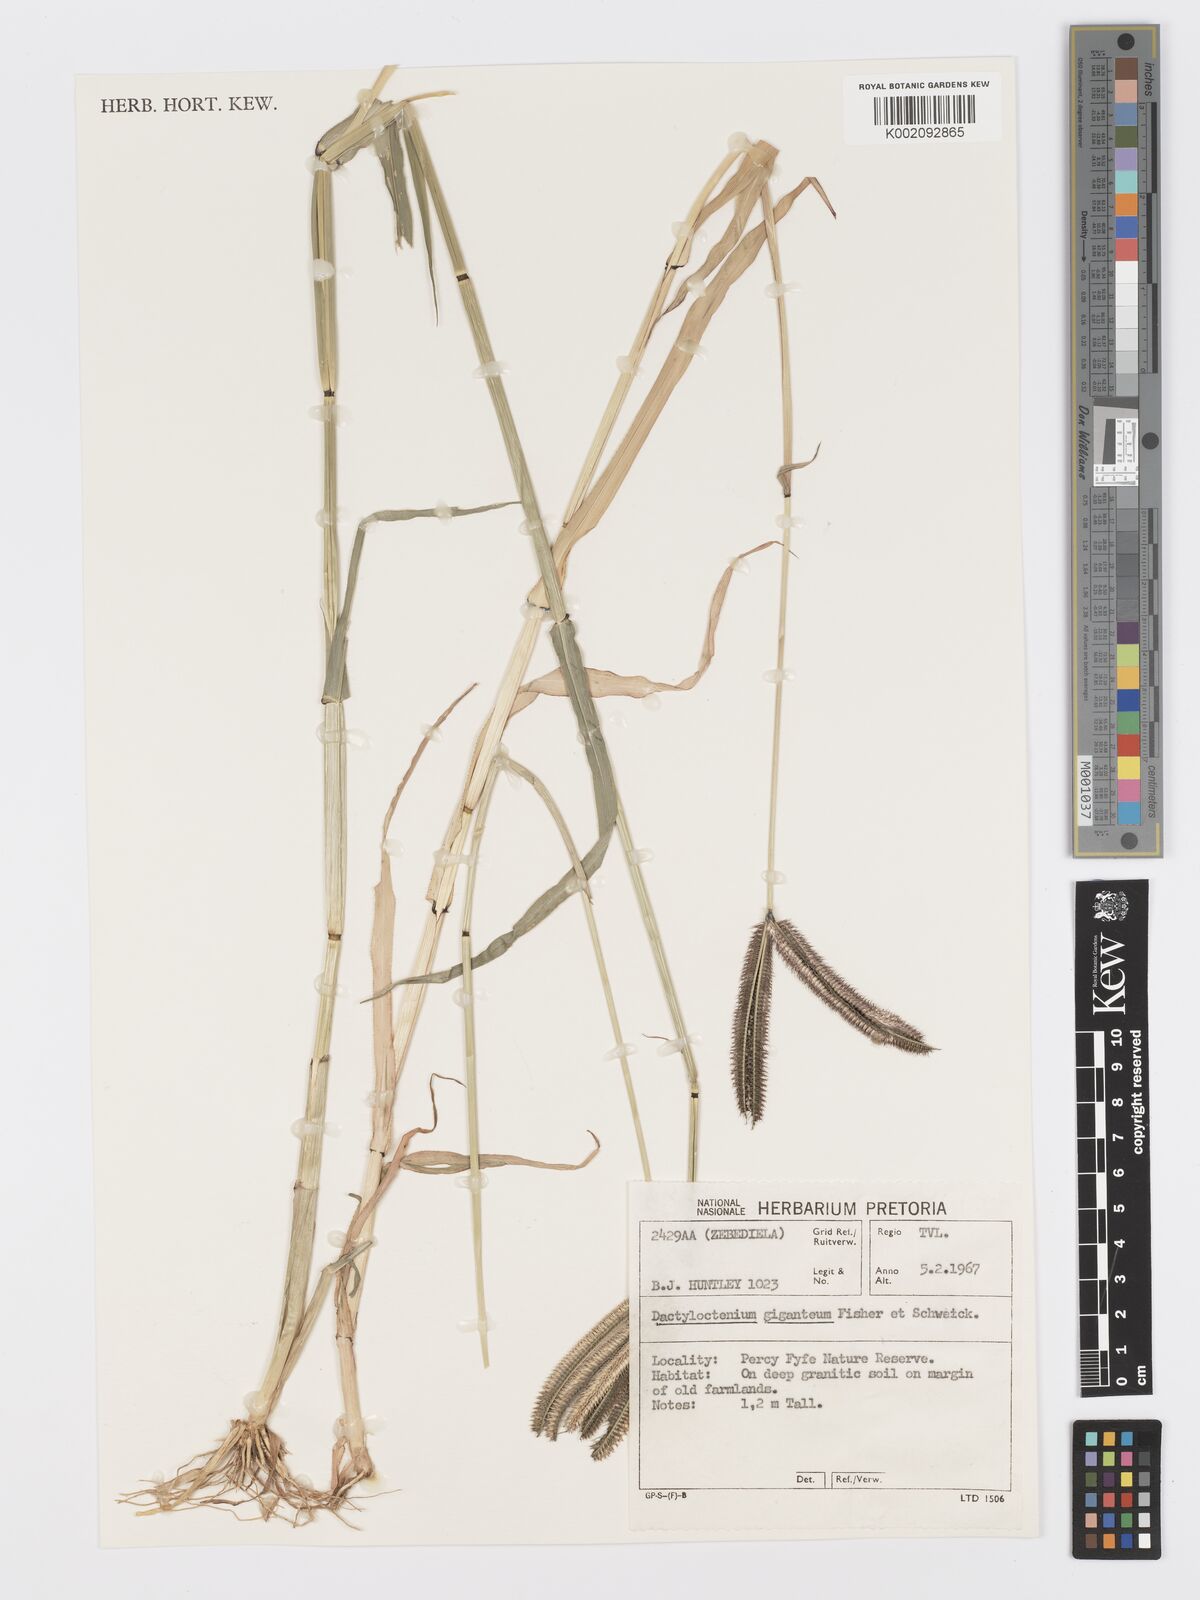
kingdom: Plantae
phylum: Tracheophyta
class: Liliopsida
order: Poales
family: Poaceae
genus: Dactyloctenium
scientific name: Dactyloctenium aegyptium
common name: Egyptian grass
